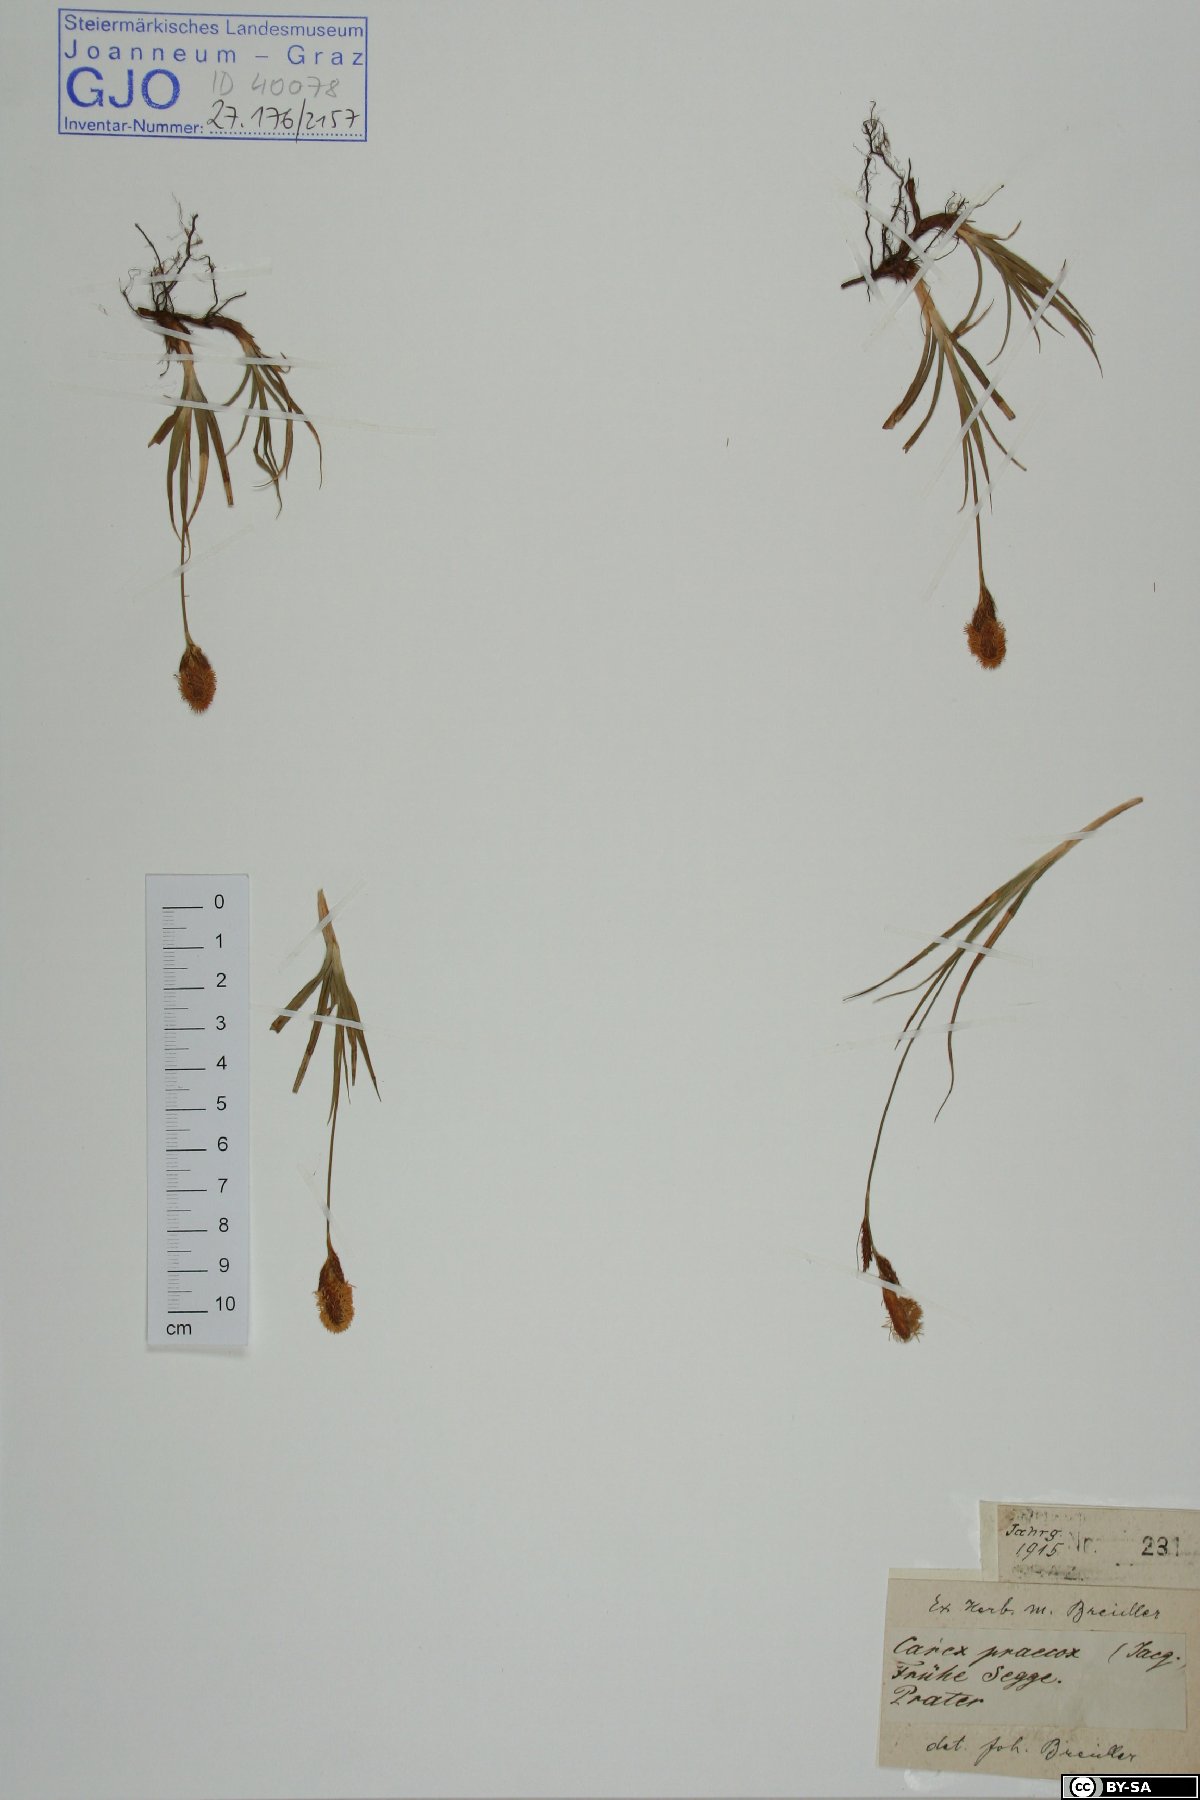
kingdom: Plantae
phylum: Tracheophyta
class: Liliopsida
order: Poales
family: Cyperaceae
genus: Carex
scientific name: Carex praecox
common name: Early sedge
